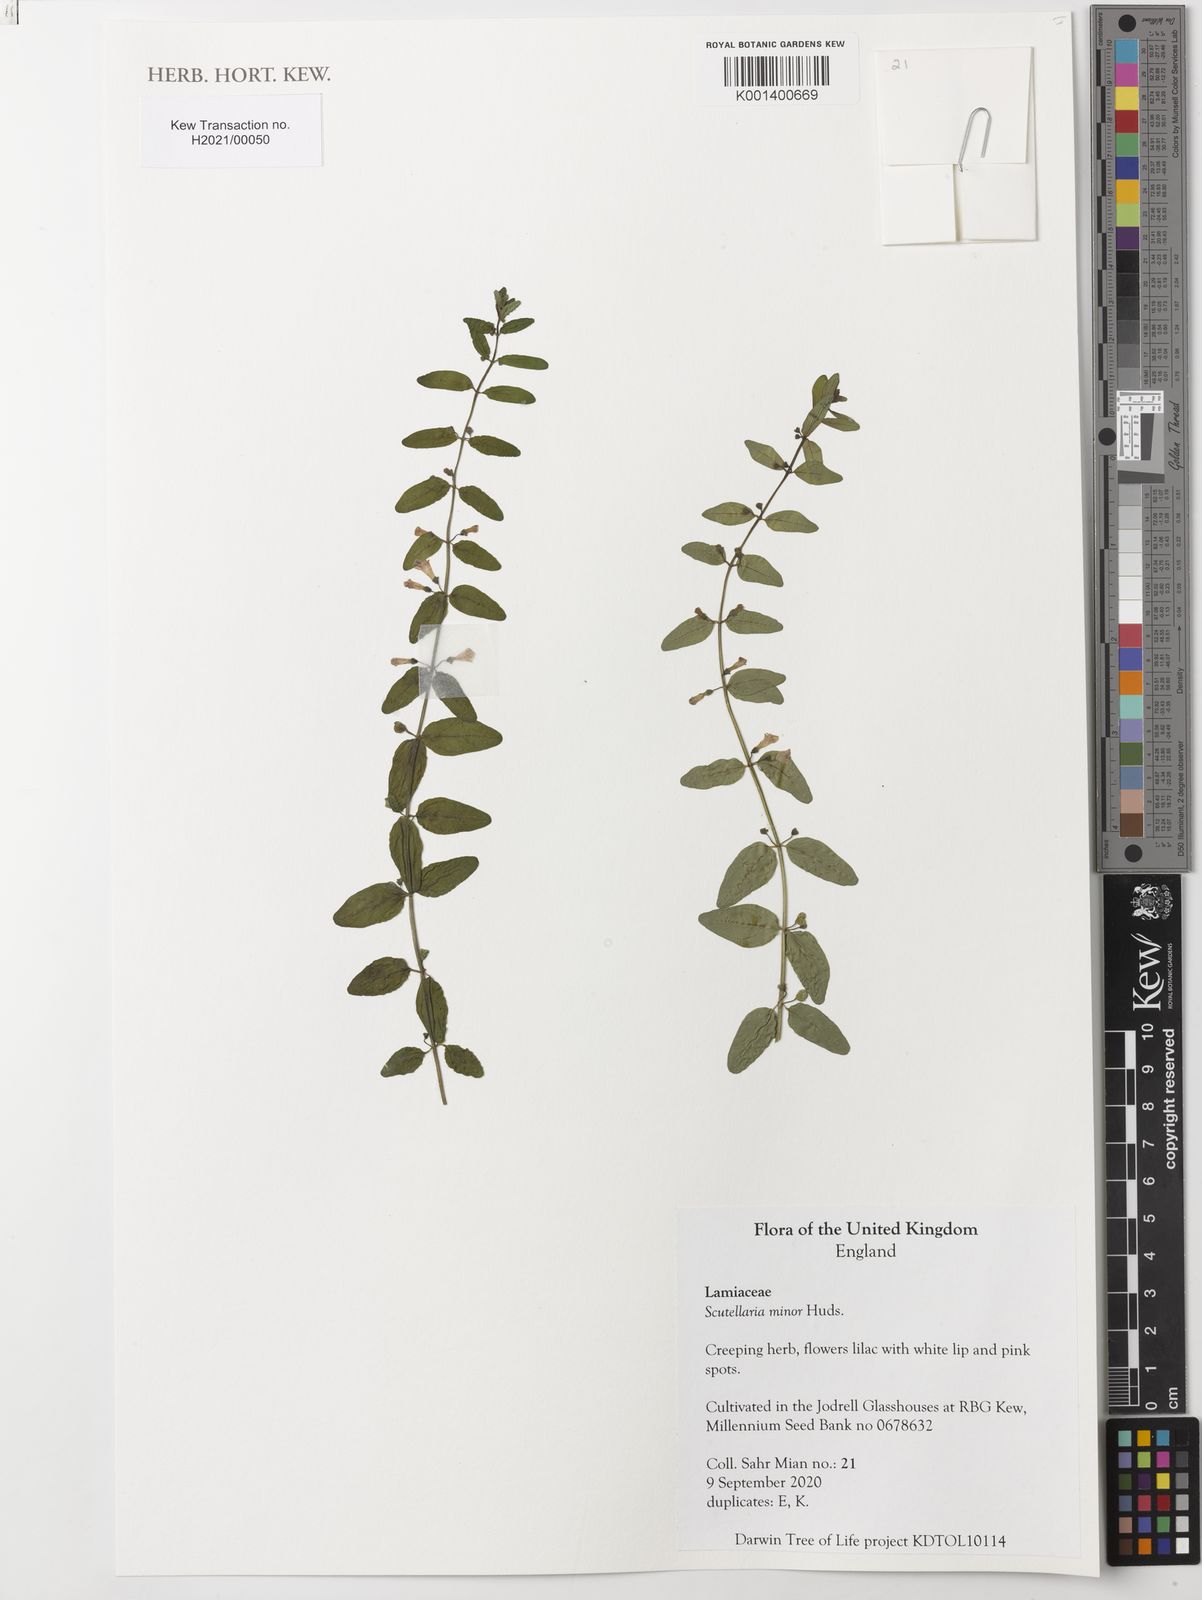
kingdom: Plantae
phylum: Tracheophyta
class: Magnoliopsida
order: Lamiales
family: Lamiaceae
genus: Scutellaria
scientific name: Scutellaria minor
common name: Lesser skullcap
